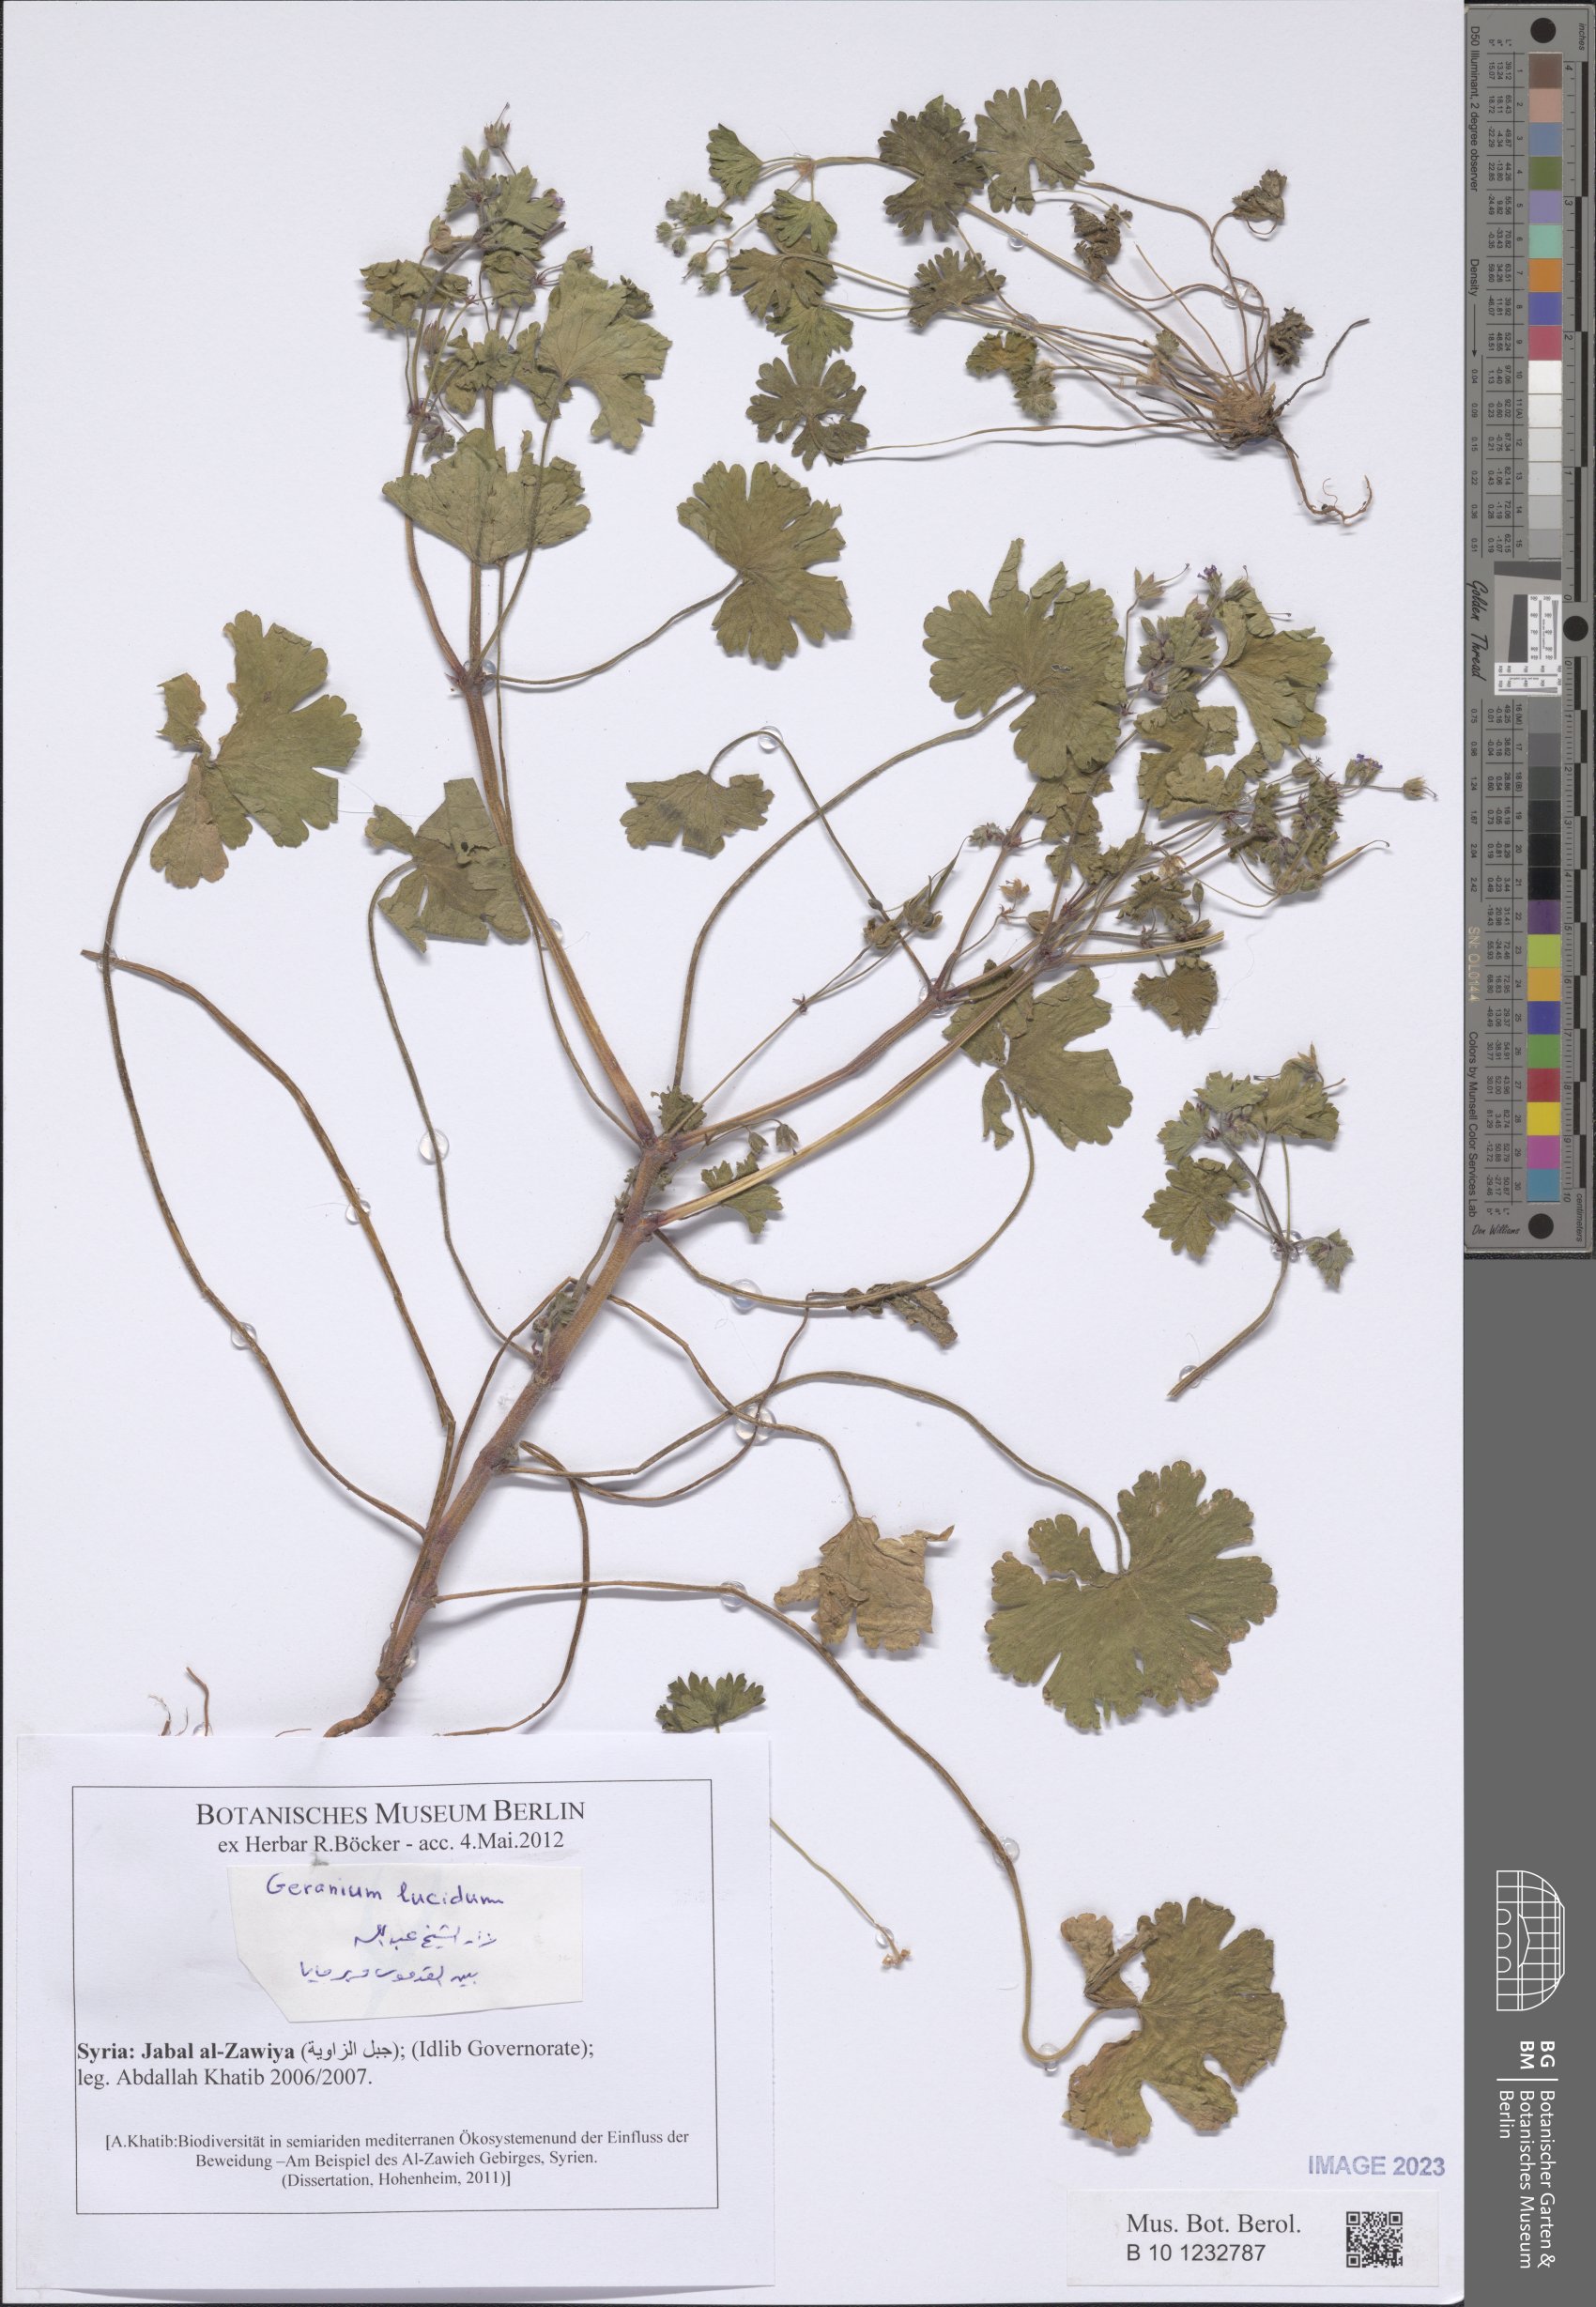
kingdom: Plantae
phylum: Tracheophyta
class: Magnoliopsida
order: Geraniales
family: Geraniaceae
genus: Geranium
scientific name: Geranium lucidum
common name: Shining crane's-bill
